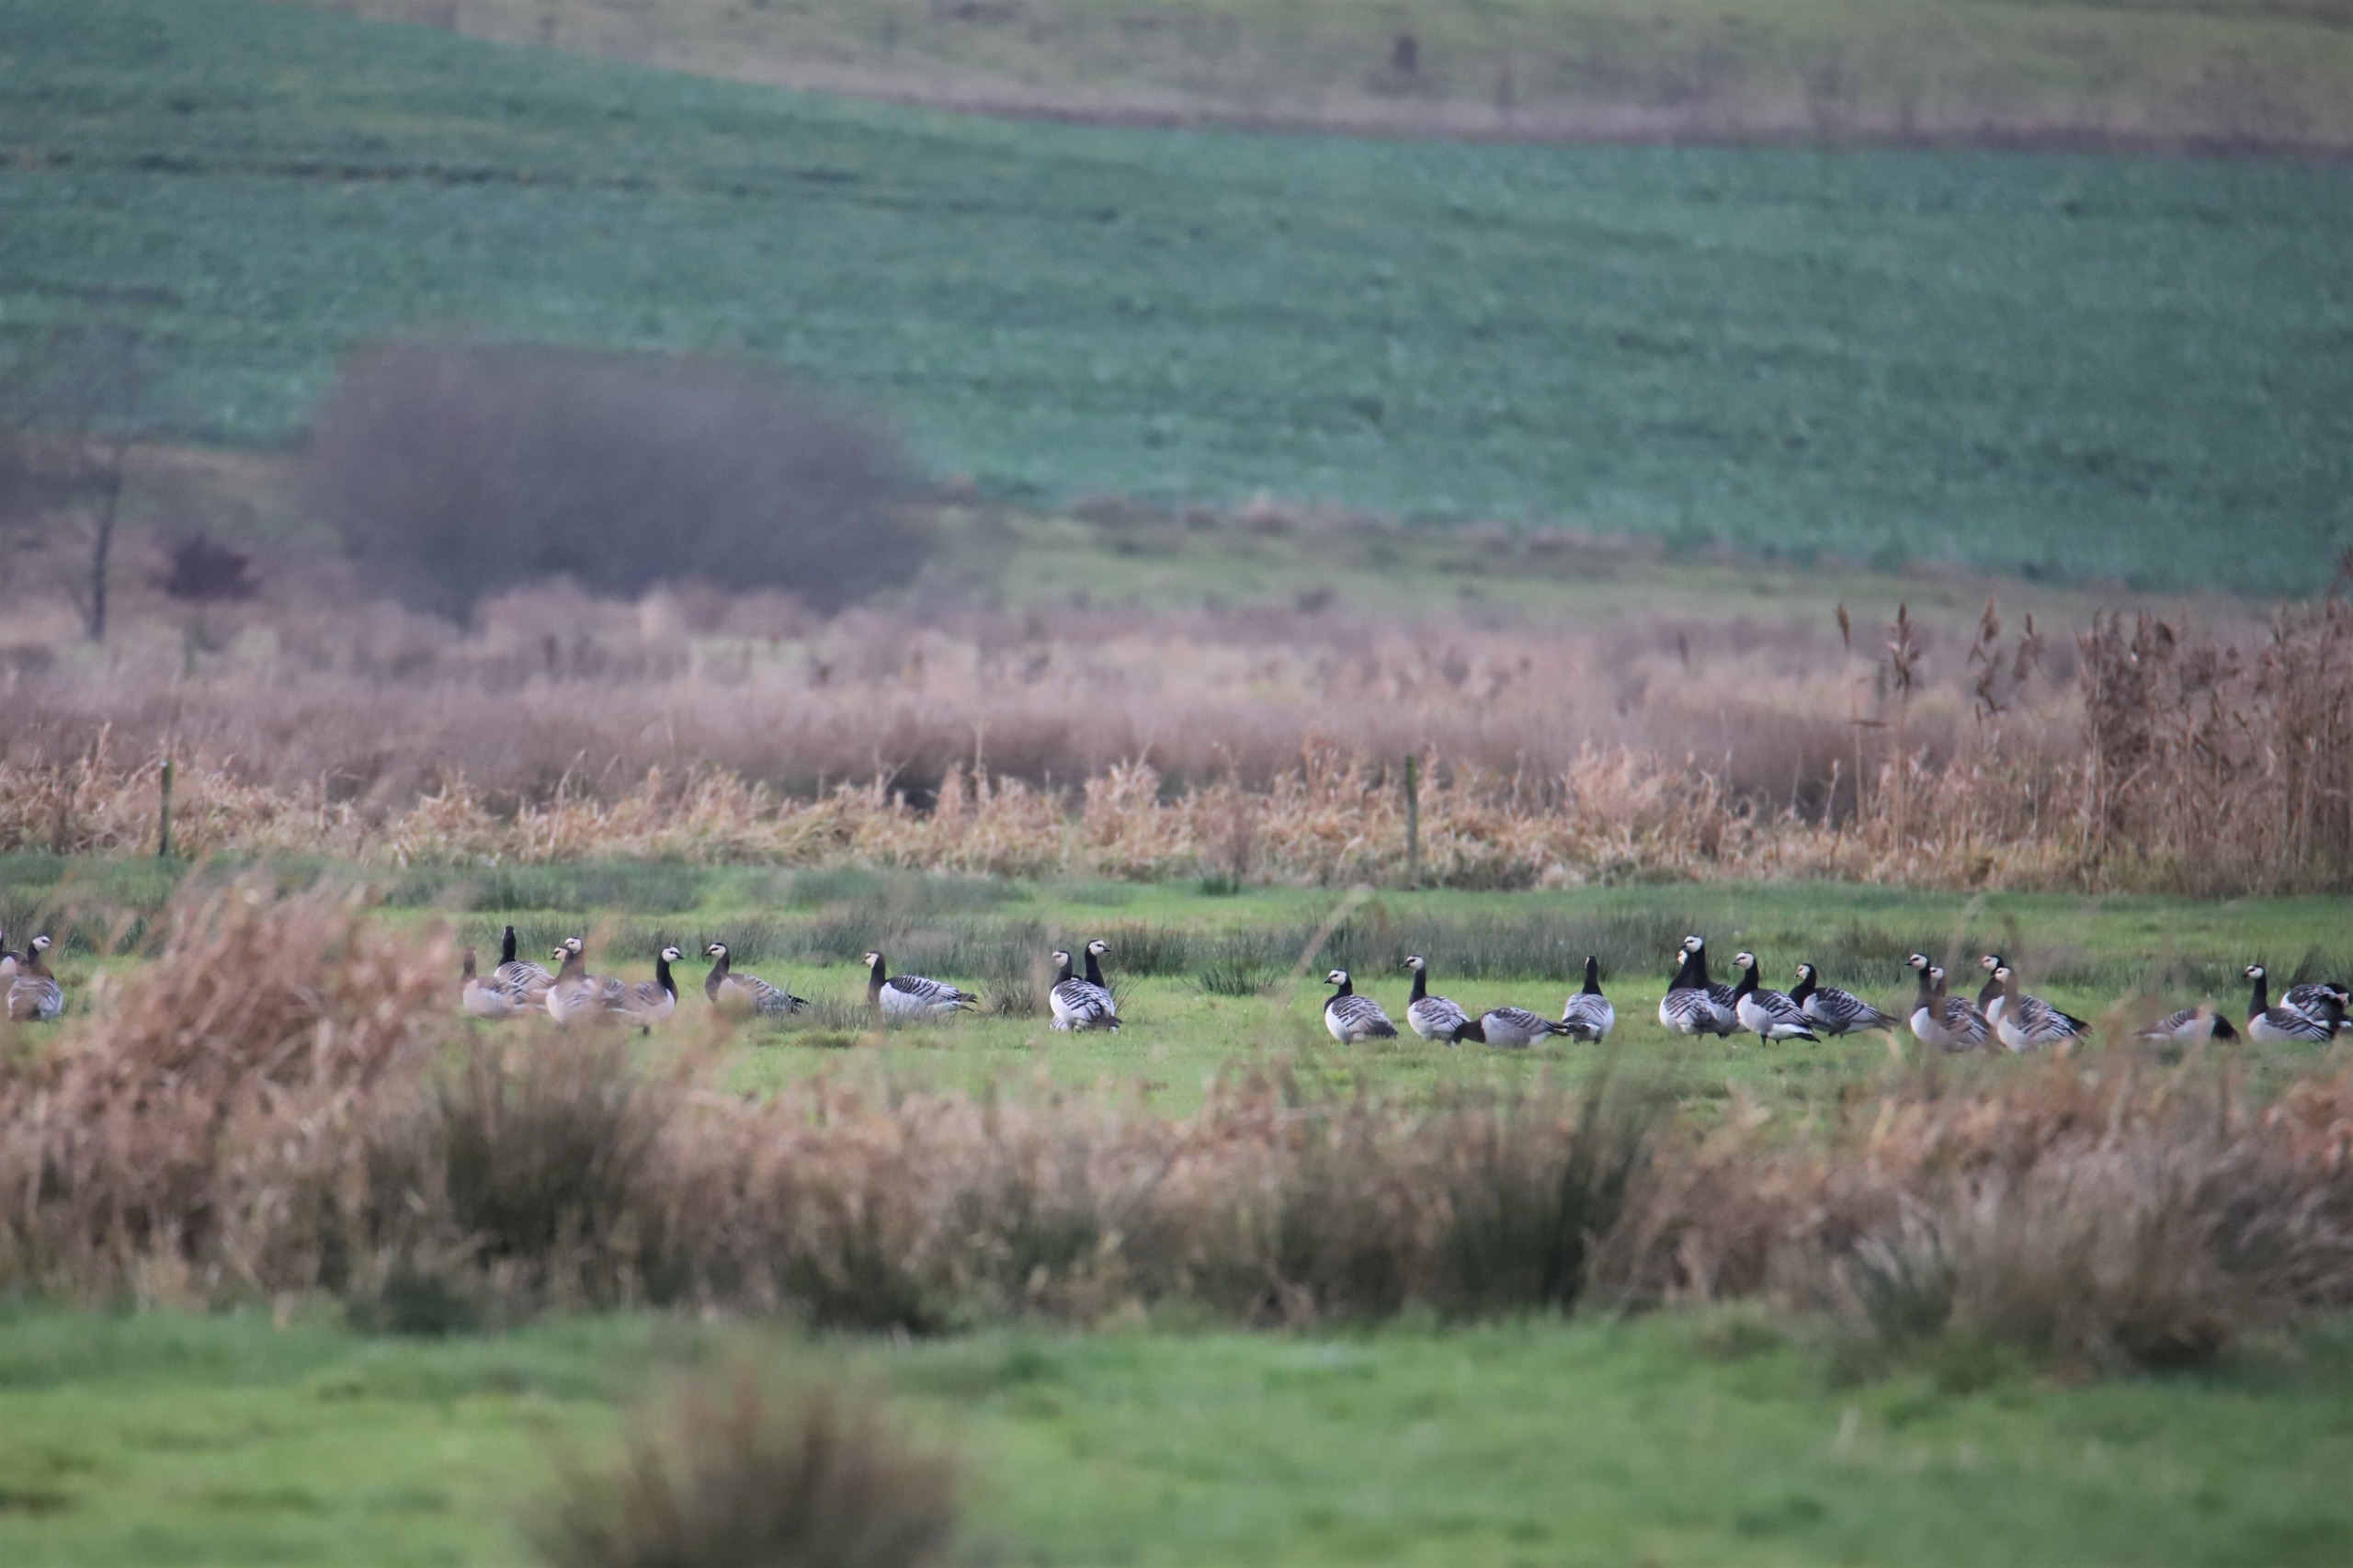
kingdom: Animalia
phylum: Chordata
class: Aves
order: Anseriformes
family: Anatidae
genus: Branta
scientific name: Branta leucopsis
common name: Bramgås
